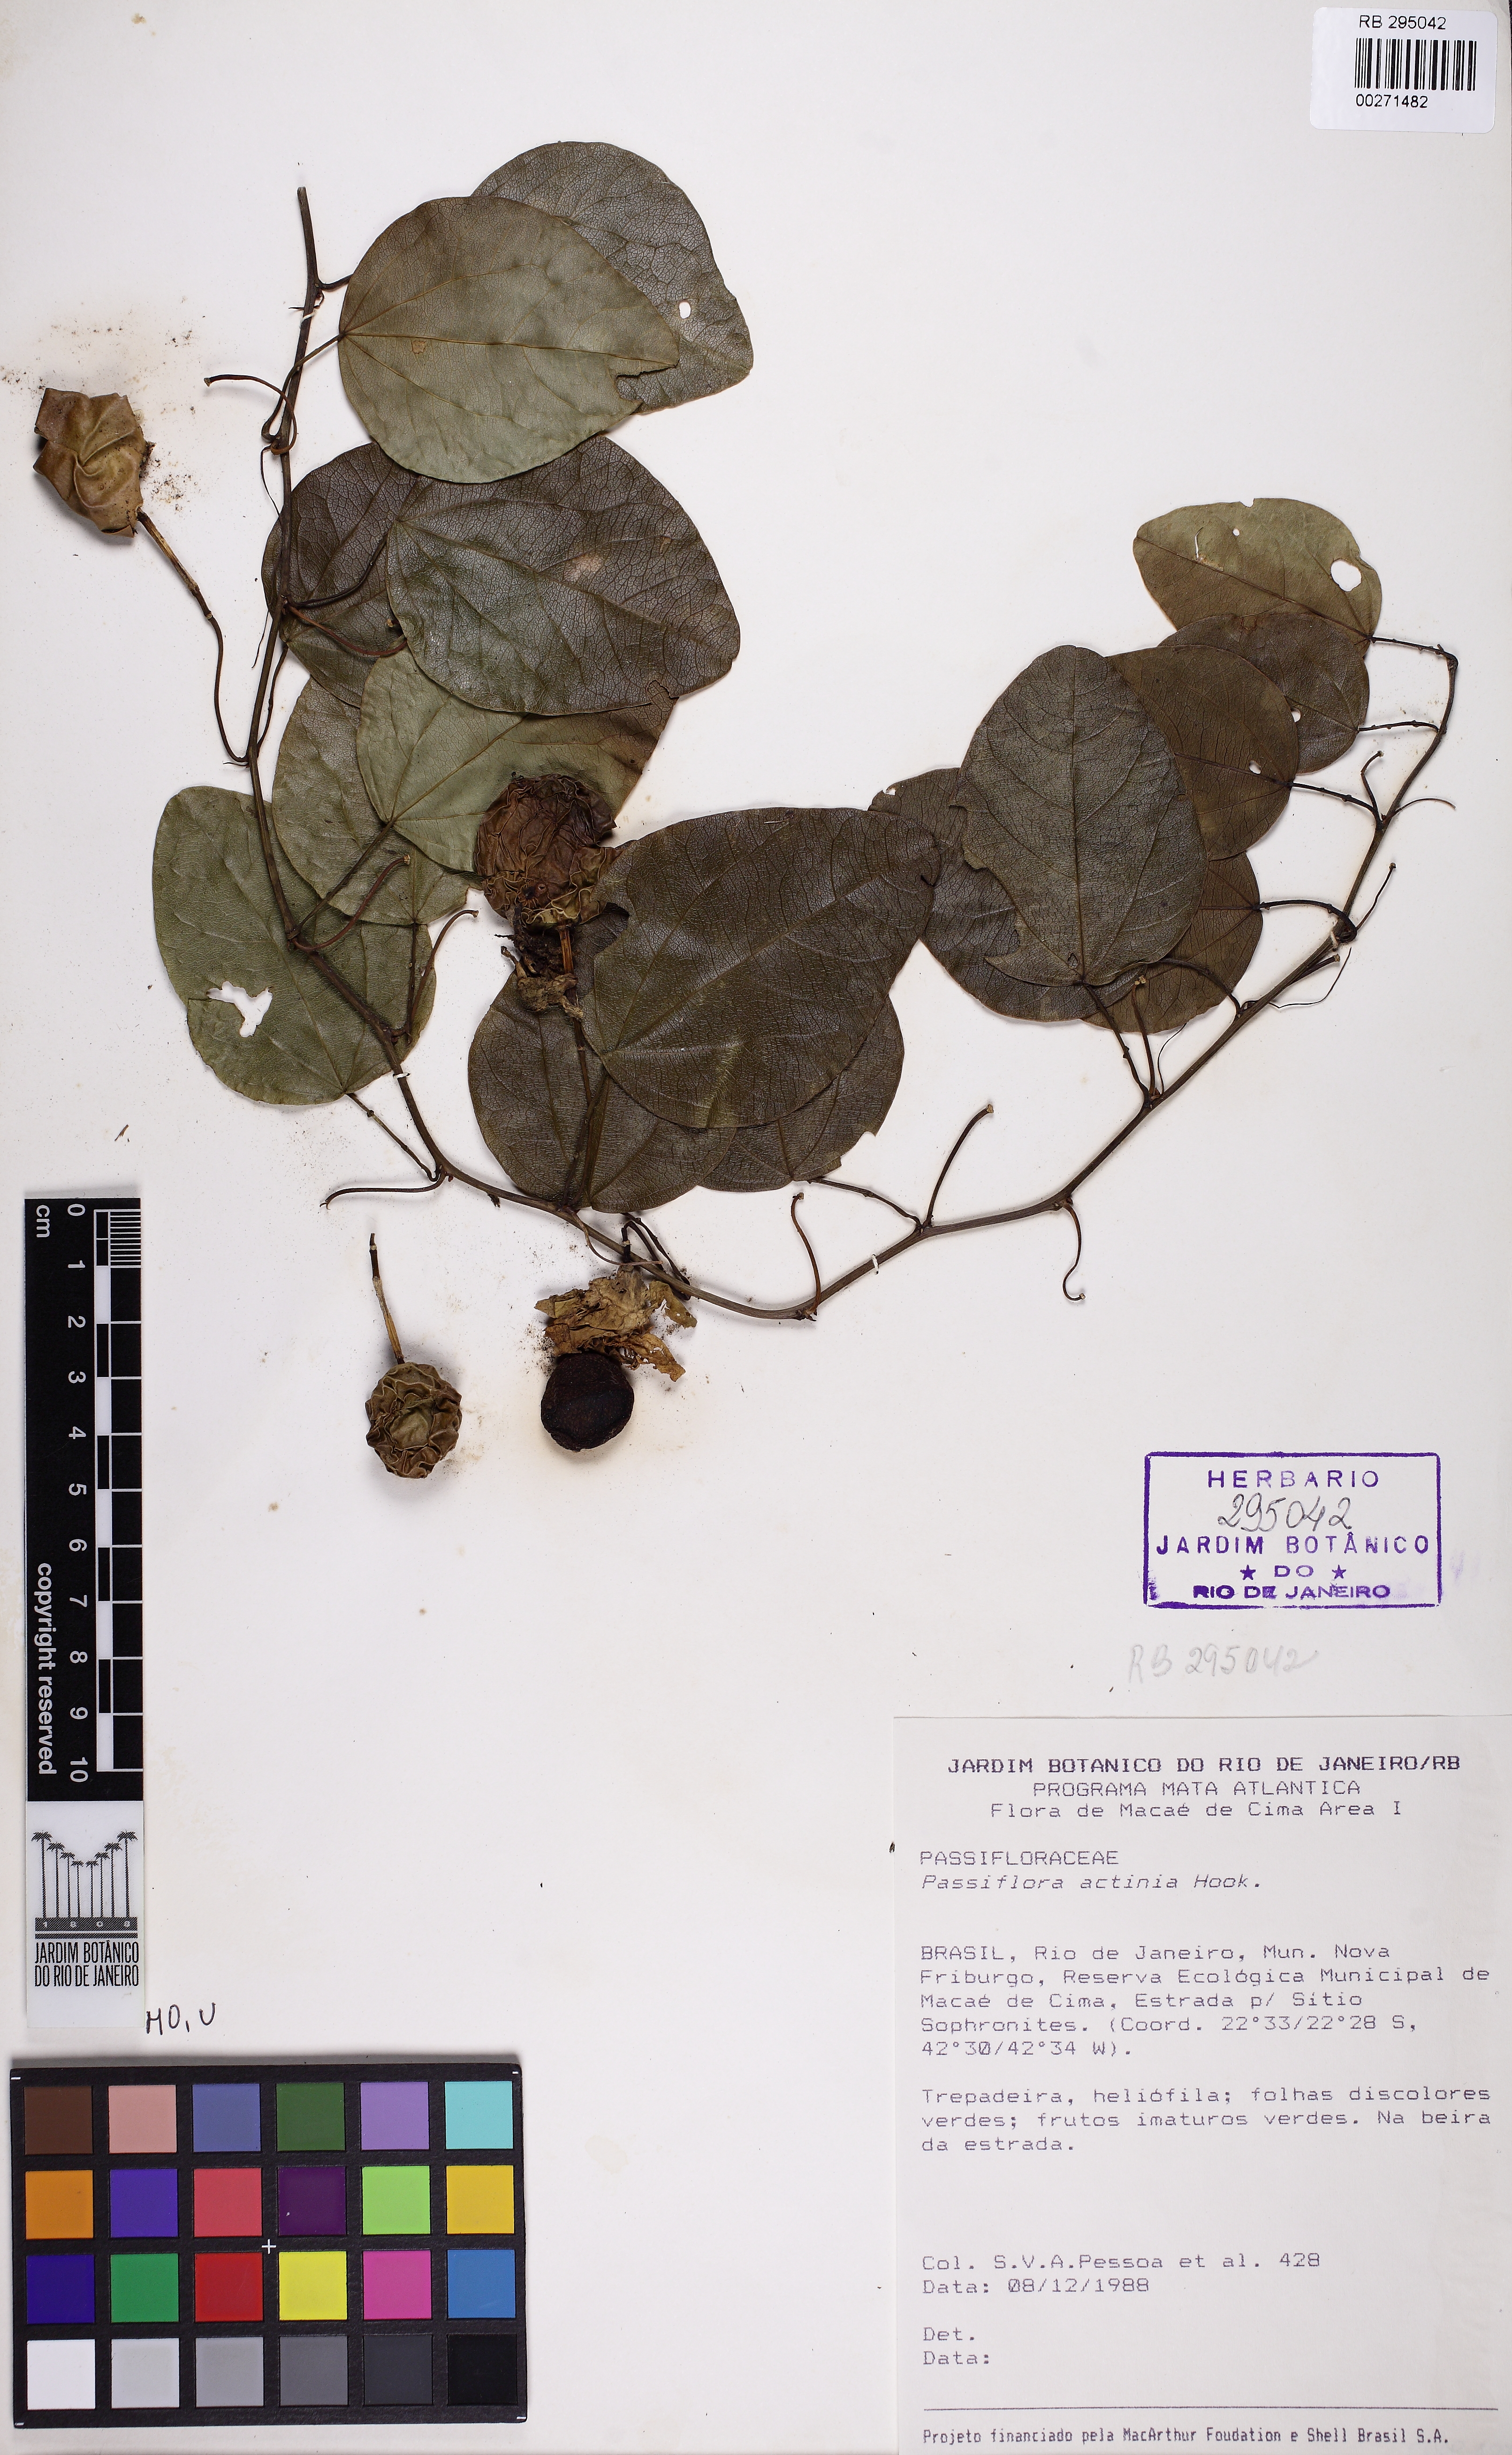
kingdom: Plantae
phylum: Tracheophyta
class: Magnoliopsida
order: Malpighiales
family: Passifloraceae
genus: Passiflora
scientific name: Passiflora actinia
